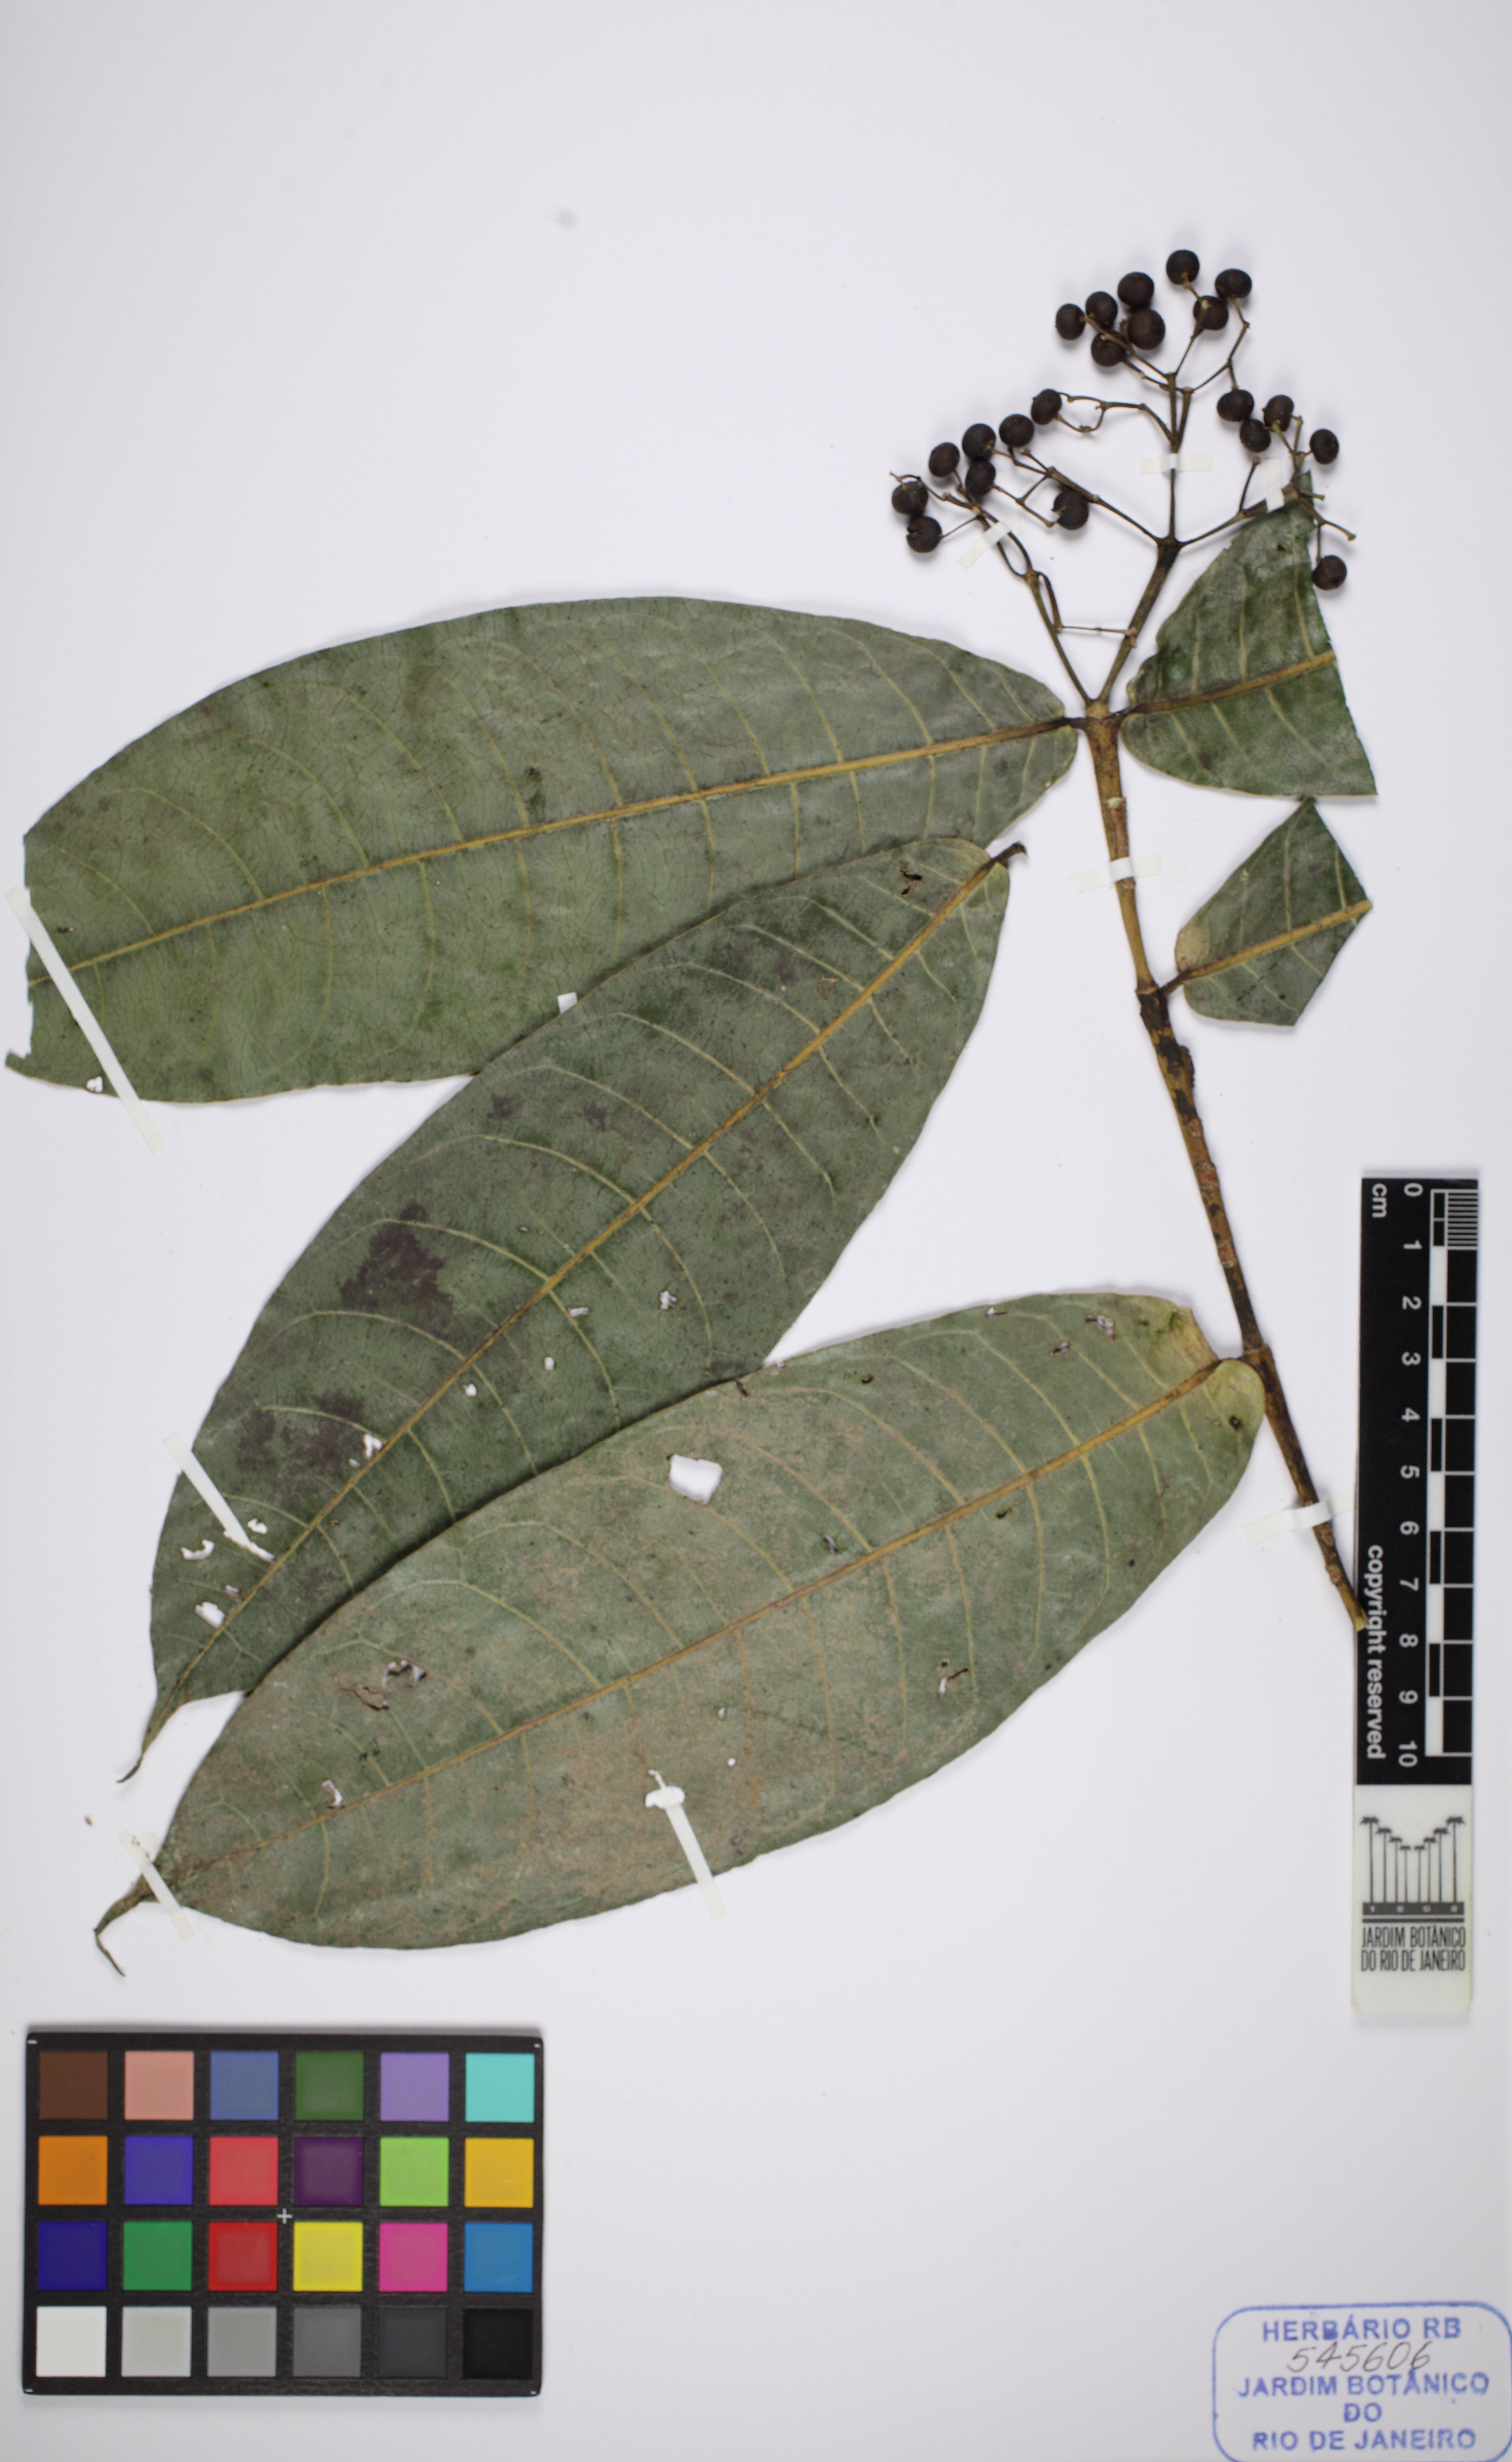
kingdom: Plantae
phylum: Tracheophyta
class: Magnoliopsida
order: Gentianales
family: Rubiaceae
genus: Faramea
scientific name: Faramea sessilifolia
